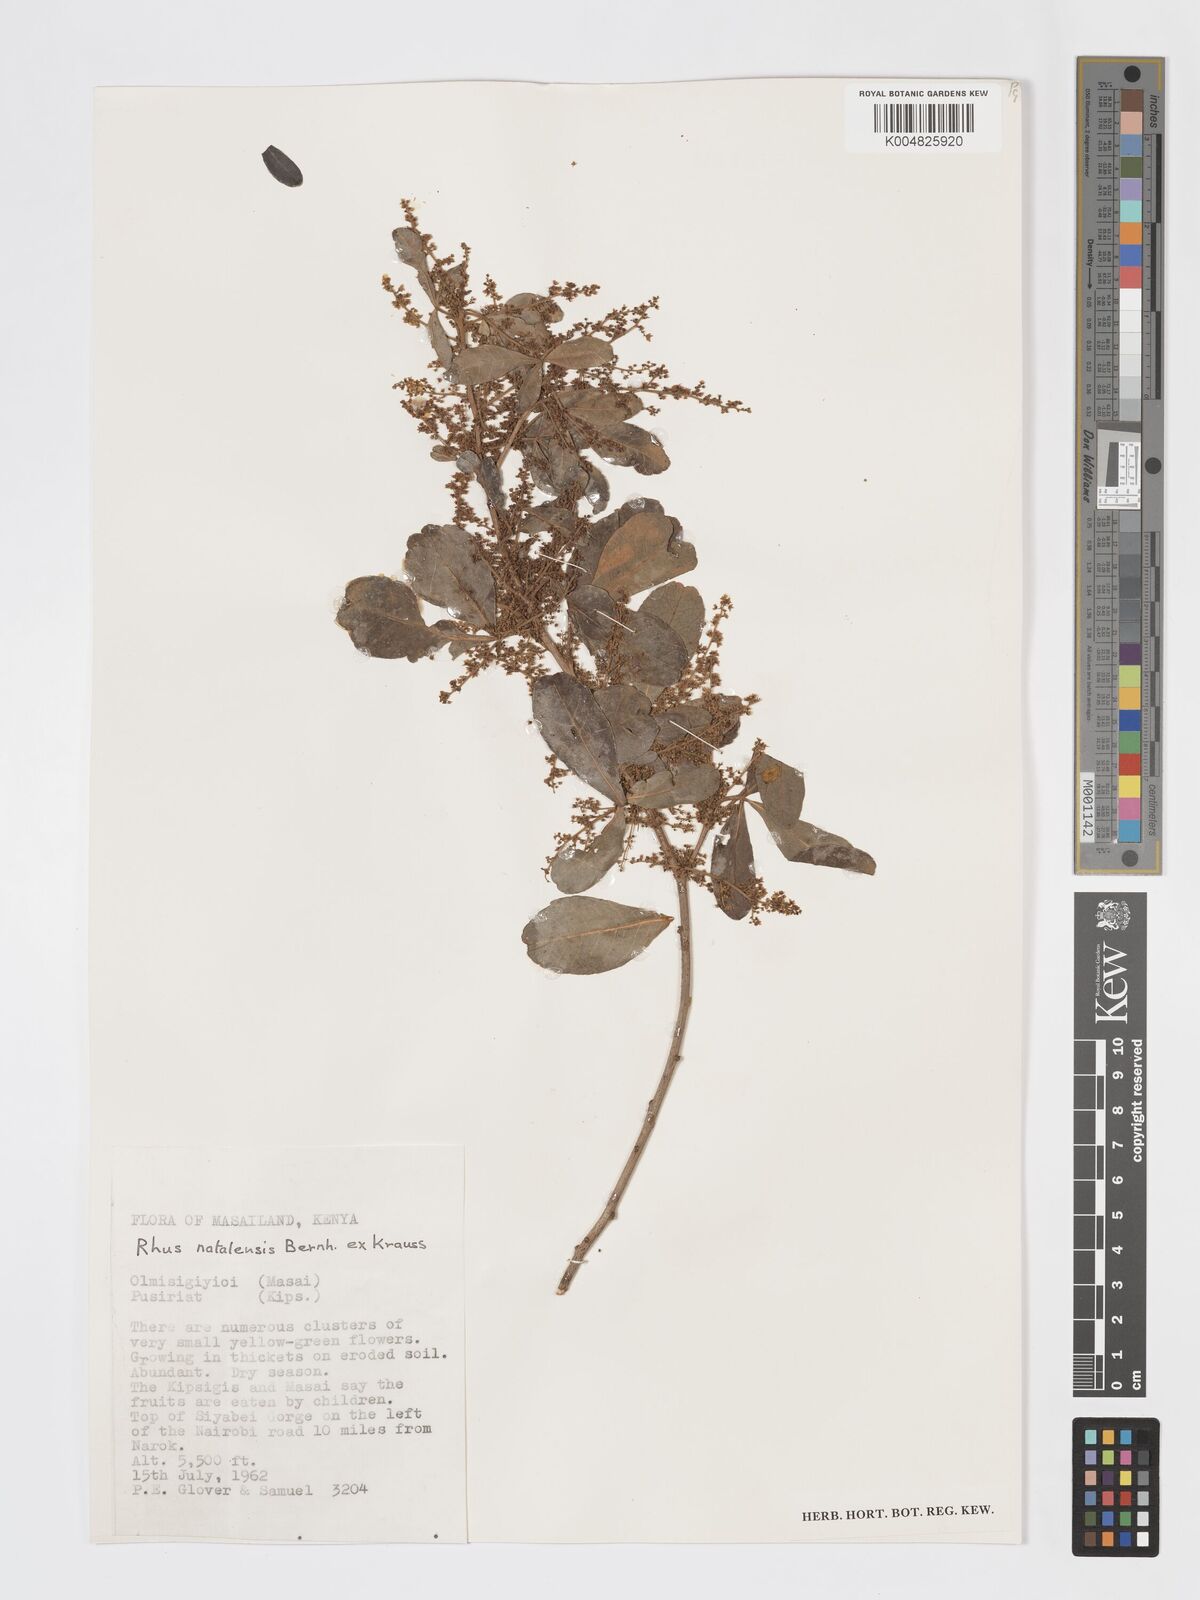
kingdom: Plantae
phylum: Tracheophyta
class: Magnoliopsida
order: Sapindales
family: Anacardiaceae
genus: Searsia
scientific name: Searsia natalensis
